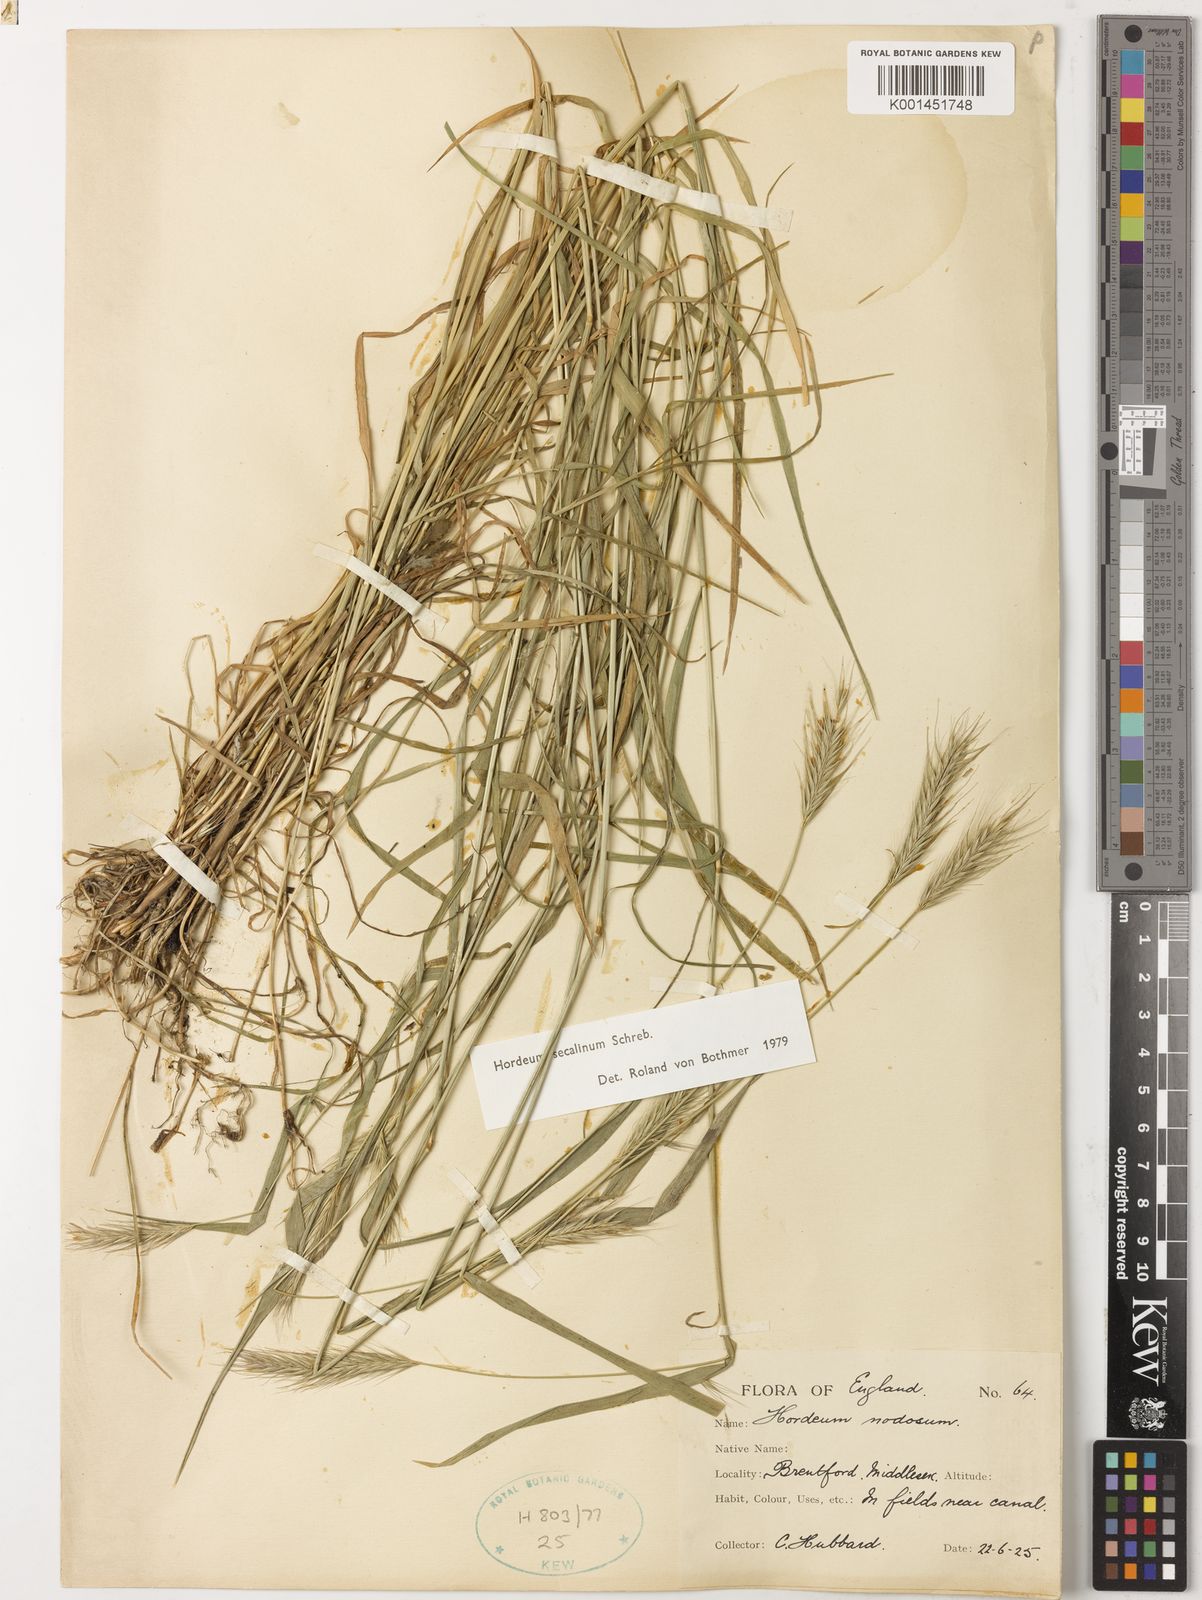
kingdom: Plantae
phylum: Tracheophyta
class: Liliopsida
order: Poales
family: Poaceae
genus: Hordeum
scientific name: Hordeum secalinum
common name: Meadow barley
